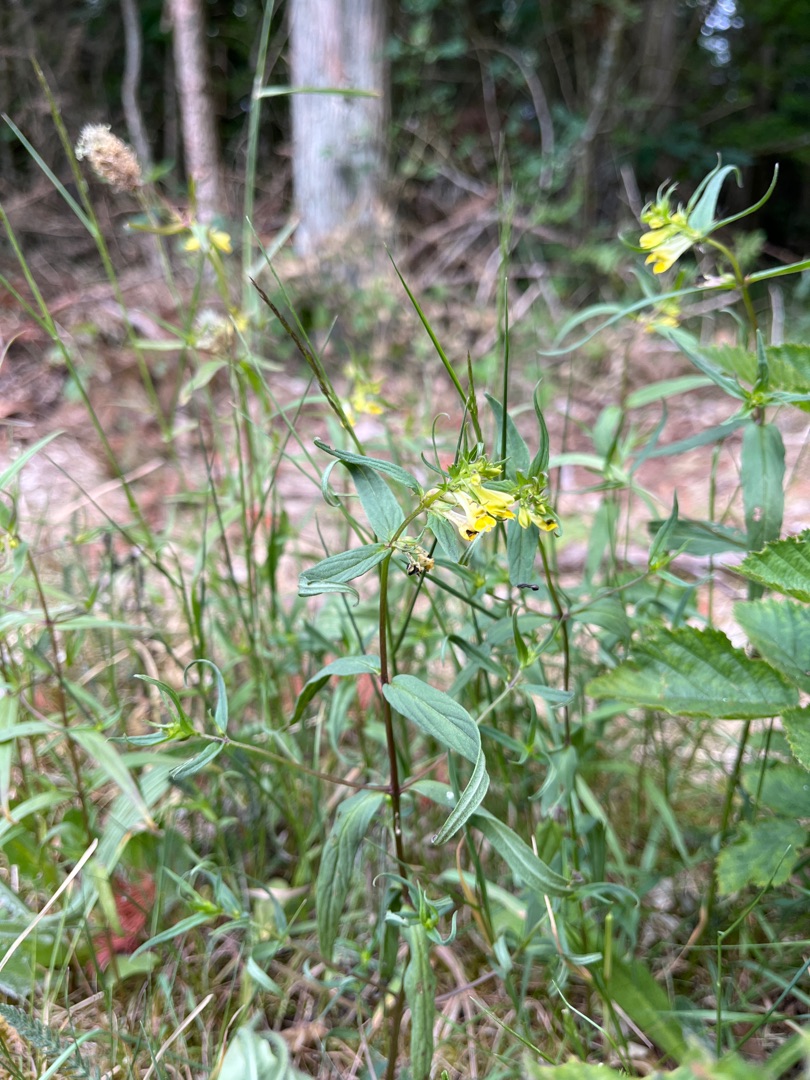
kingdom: Plantae
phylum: Tracheophyta
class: Magnoliopsida
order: Lamiales
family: Orobanchaceae
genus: Melampyrum
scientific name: Melampyrum pratense
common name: Almindelig kohvede
